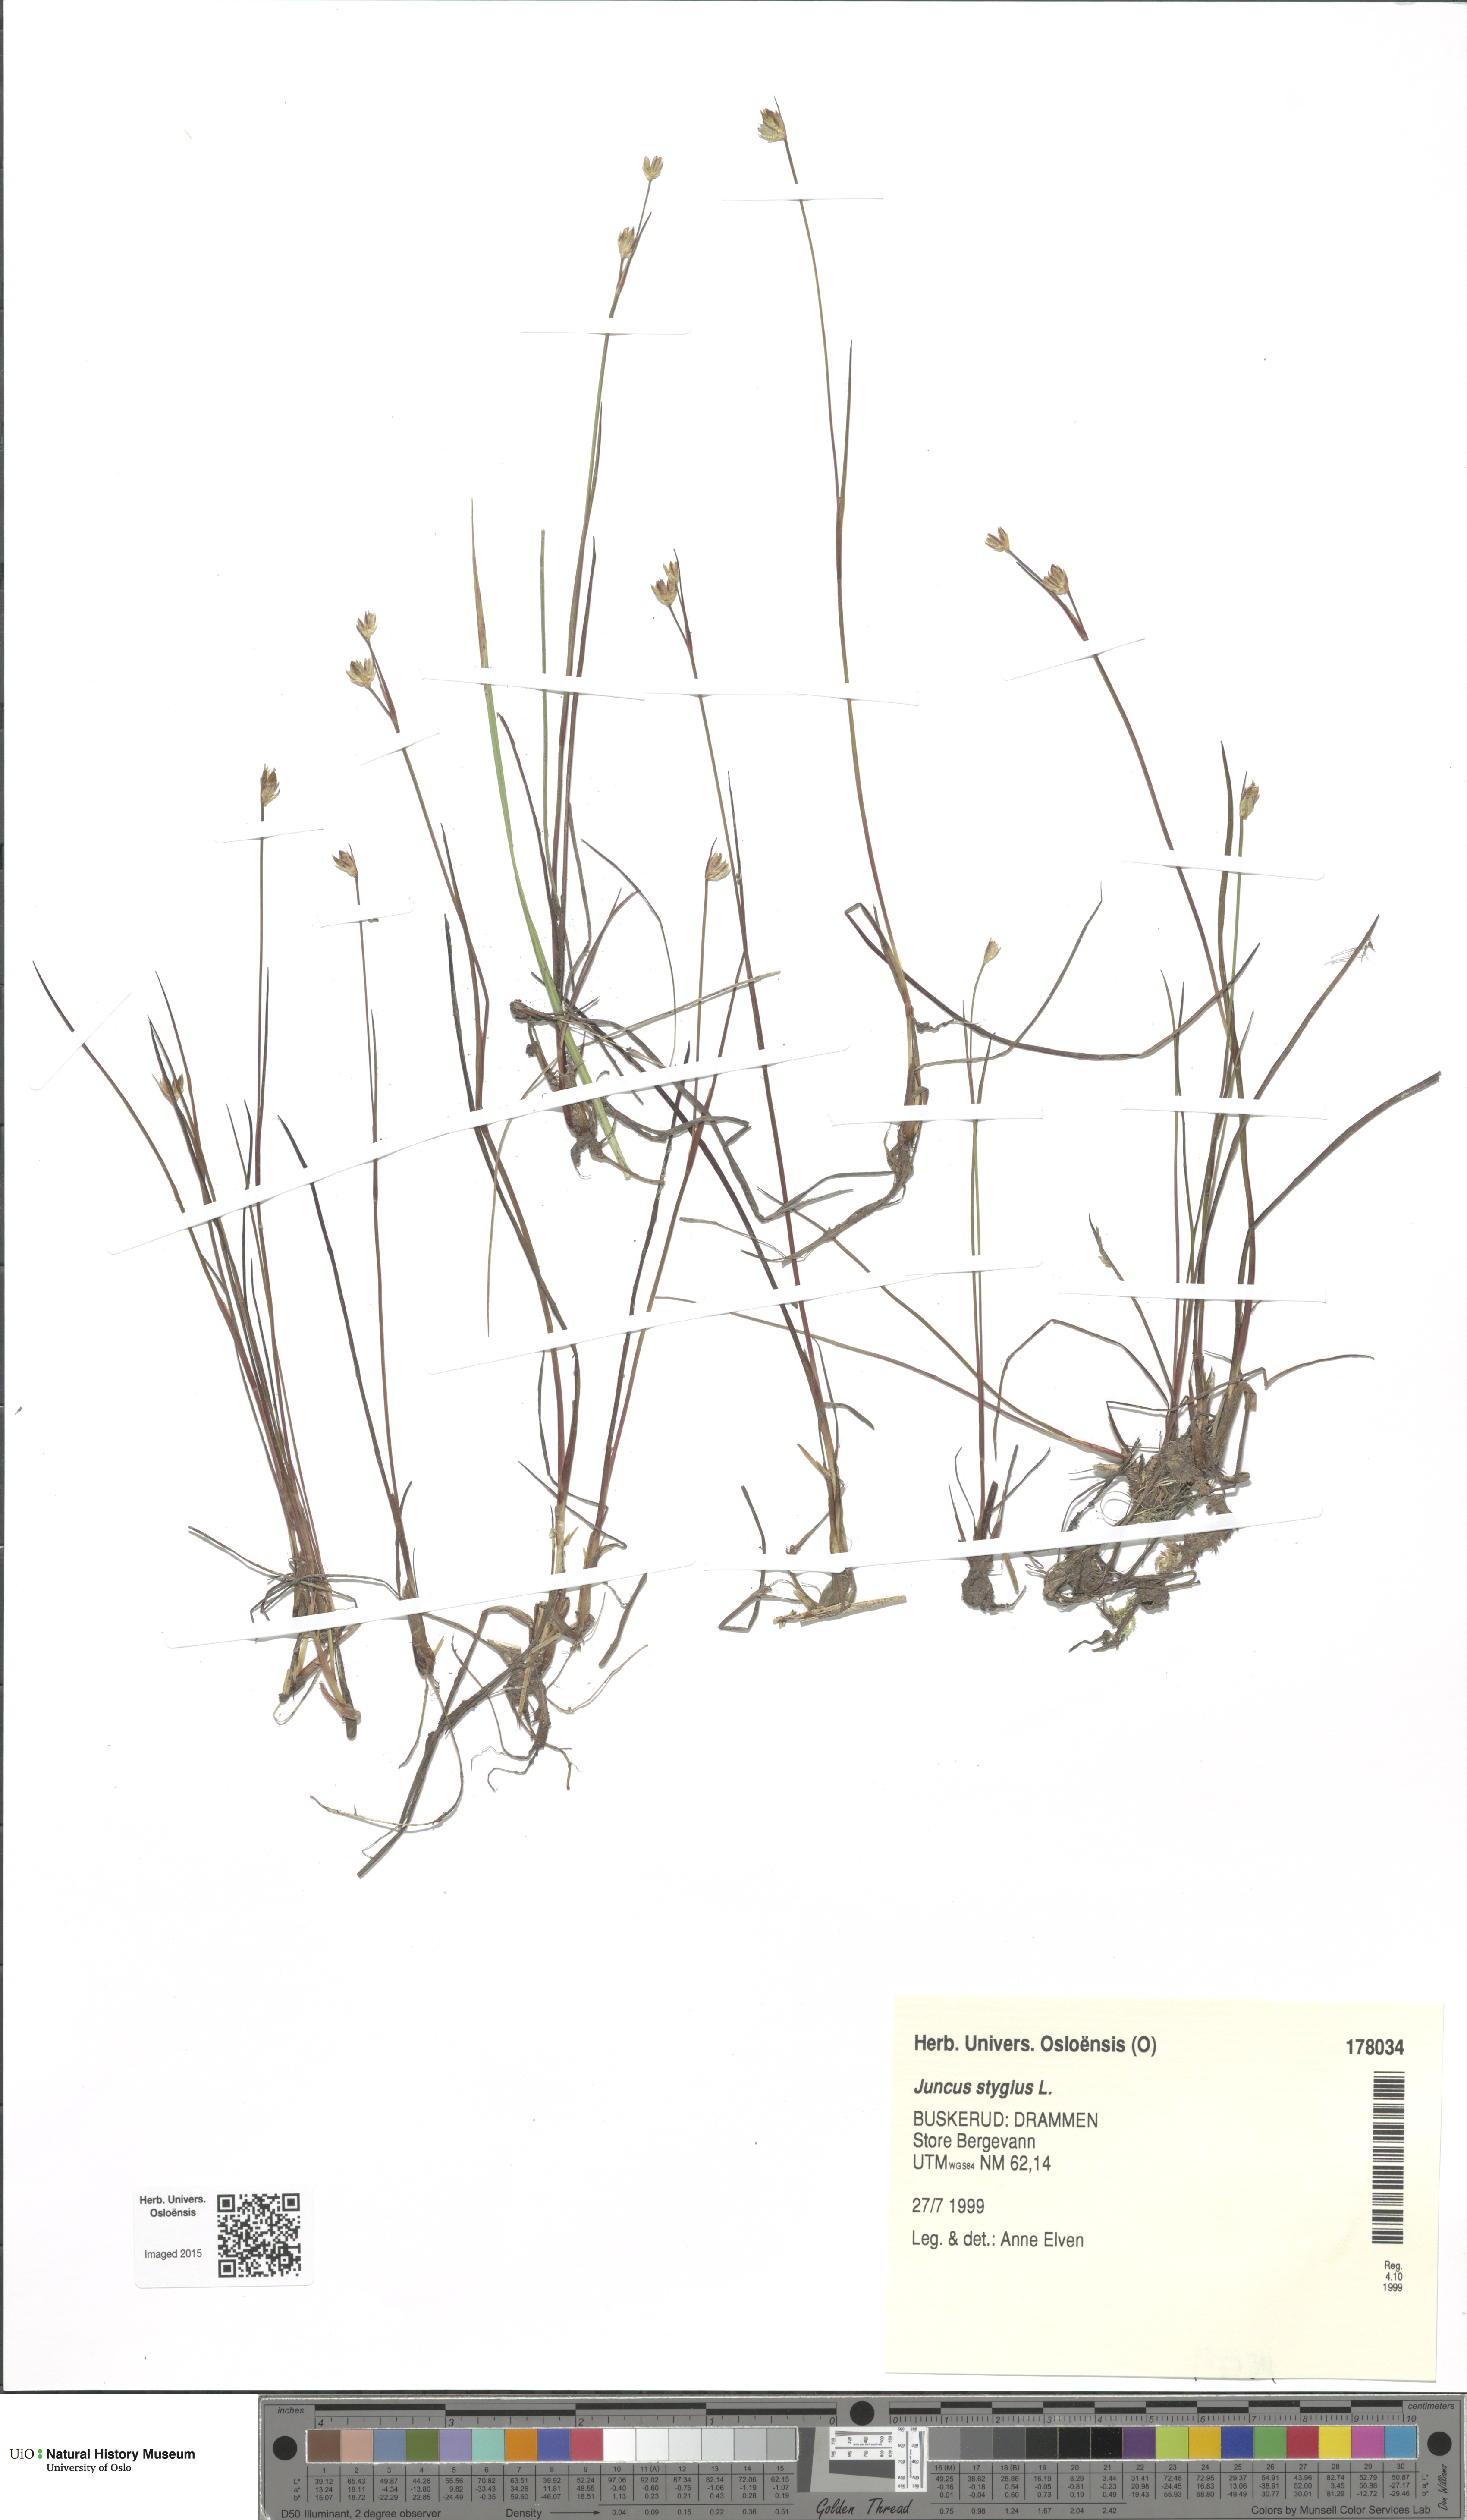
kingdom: Plantae
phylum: Tracheophyta
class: Liliopsida
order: Poales
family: Juncaceae
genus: Juncus
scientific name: Juncus stygius
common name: Bog rush
